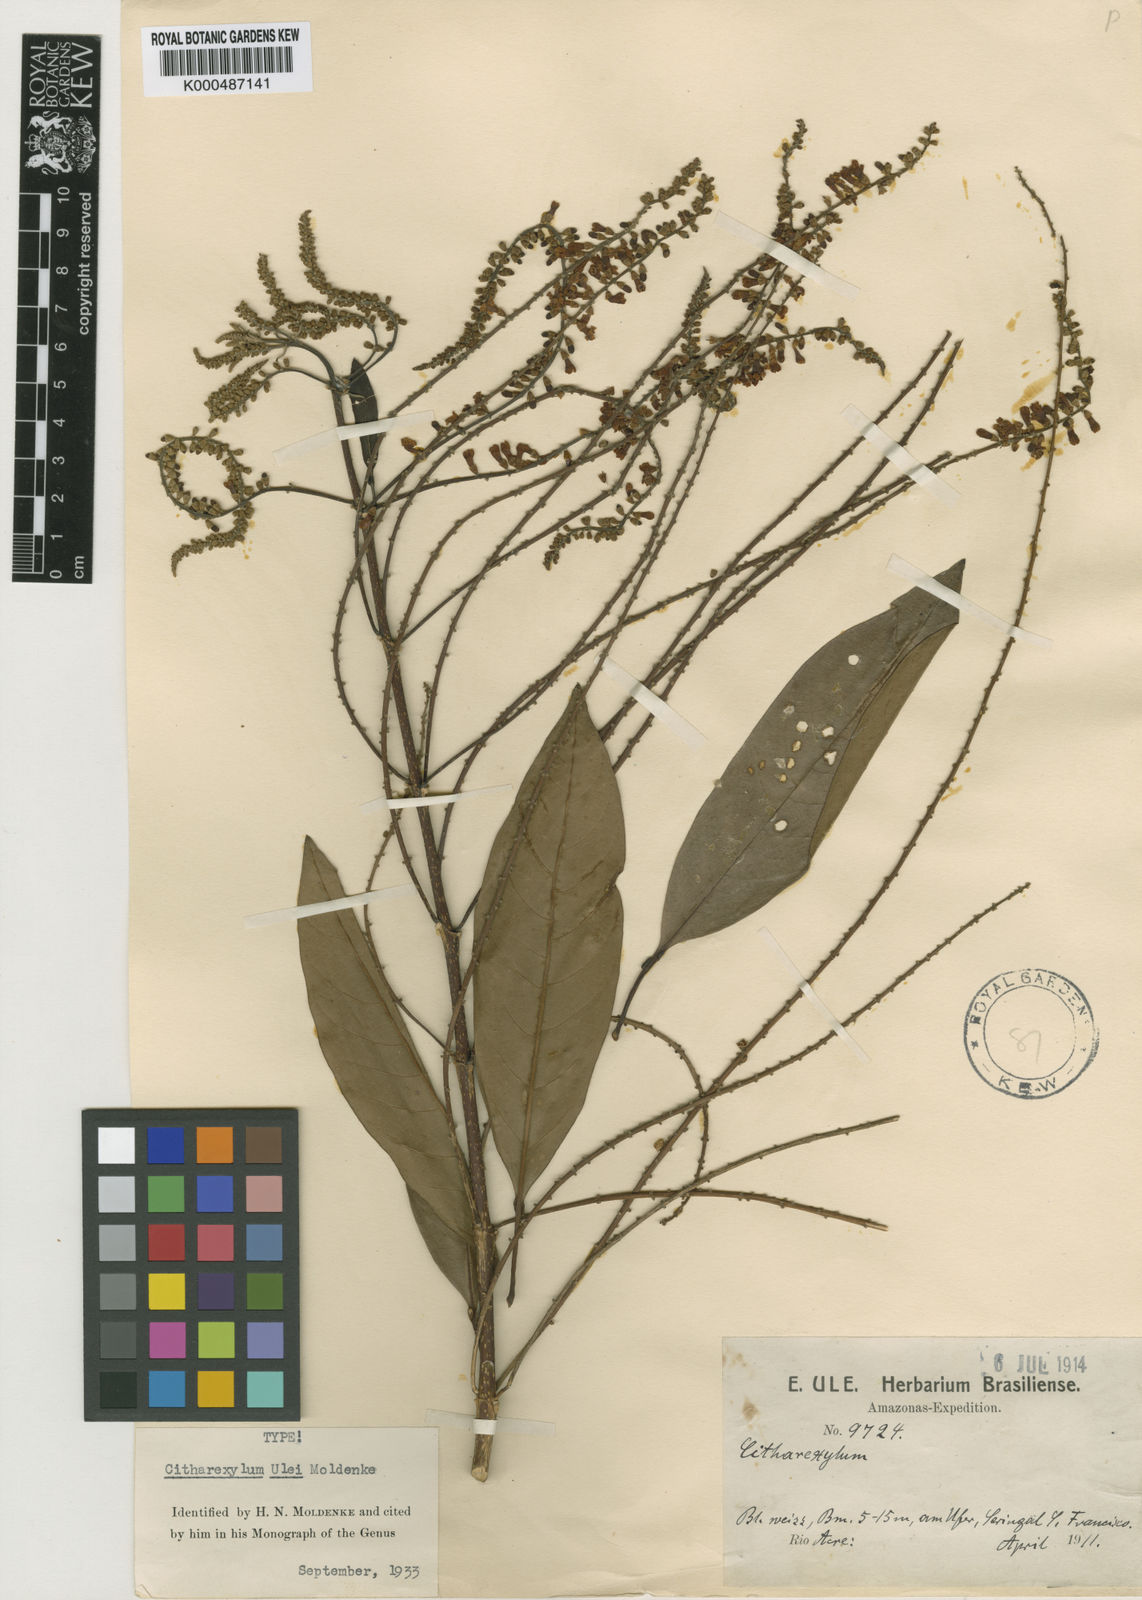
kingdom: Plantae
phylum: Tracheophyta
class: Magnoliopsida
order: Lamiales
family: Verbenaceae
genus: Citharexylum
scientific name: Citharexylum ulei
